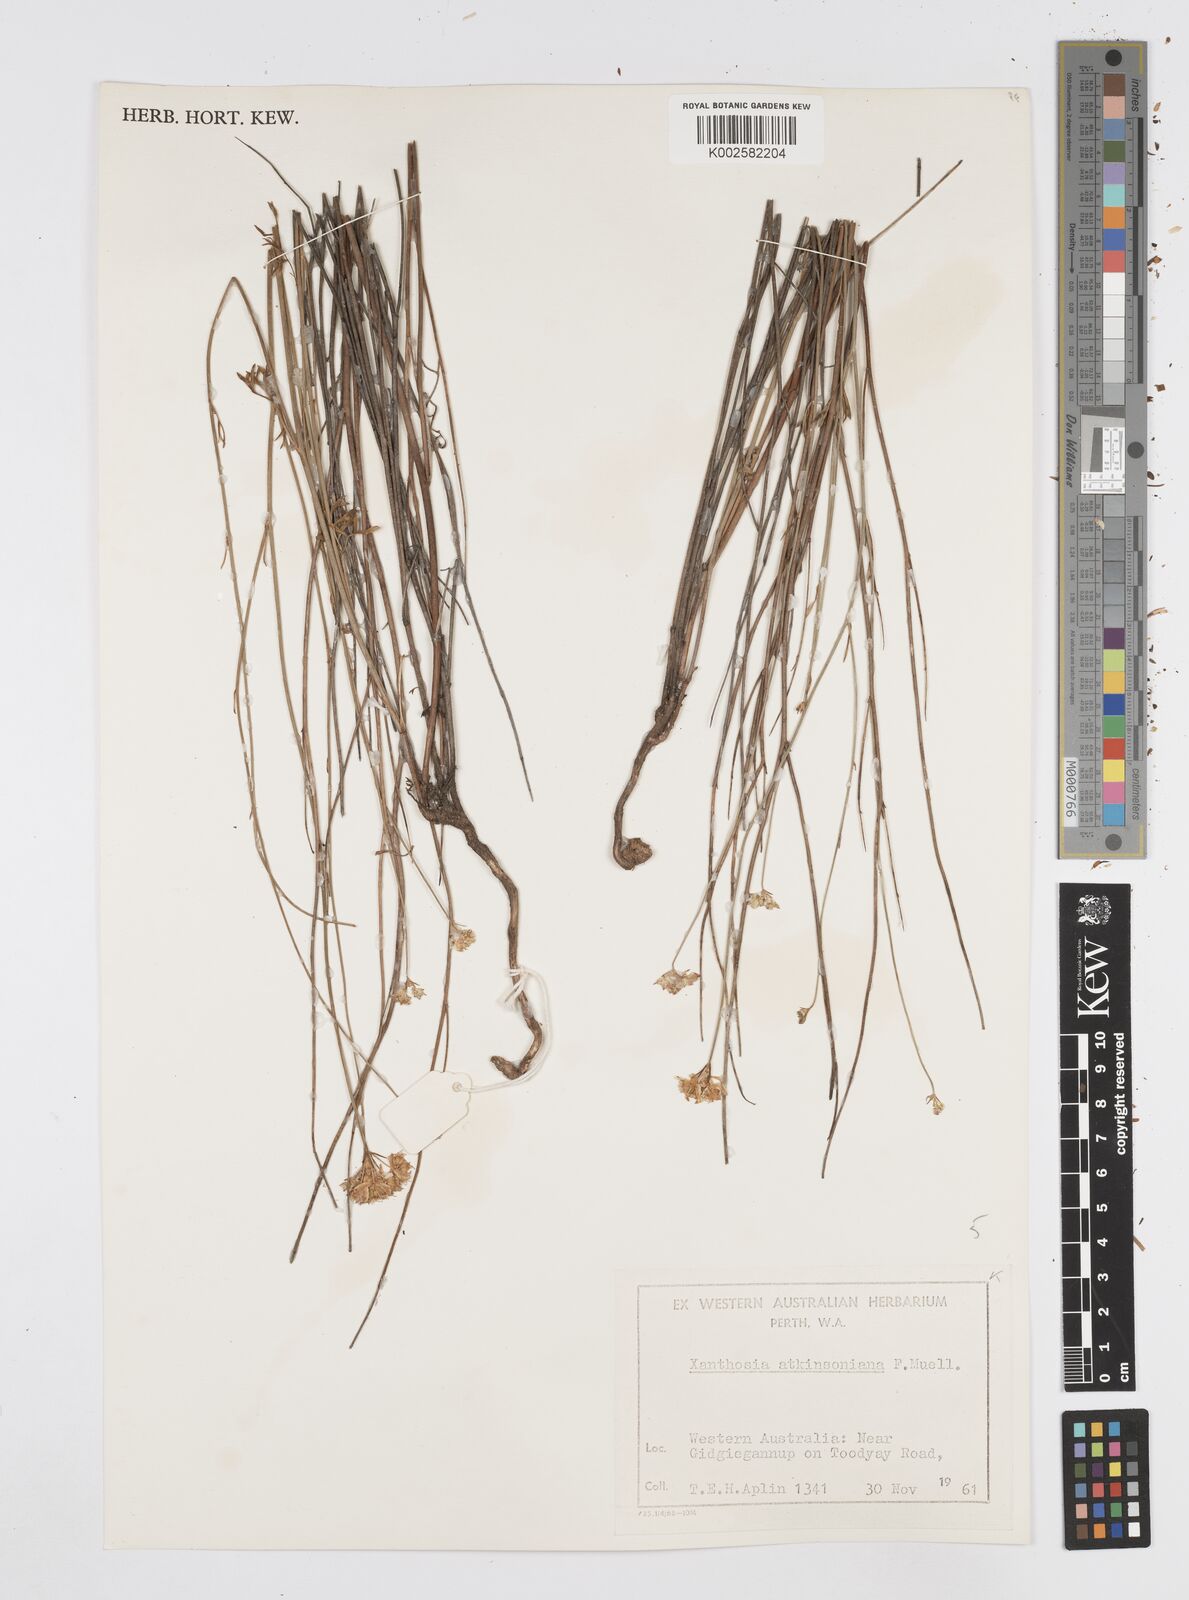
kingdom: Plantae
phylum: Tracheophyta
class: Magnoliopsida
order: Apiales
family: Apiaceae
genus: Xanthosia
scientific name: Xanthosia atkinsoniana
